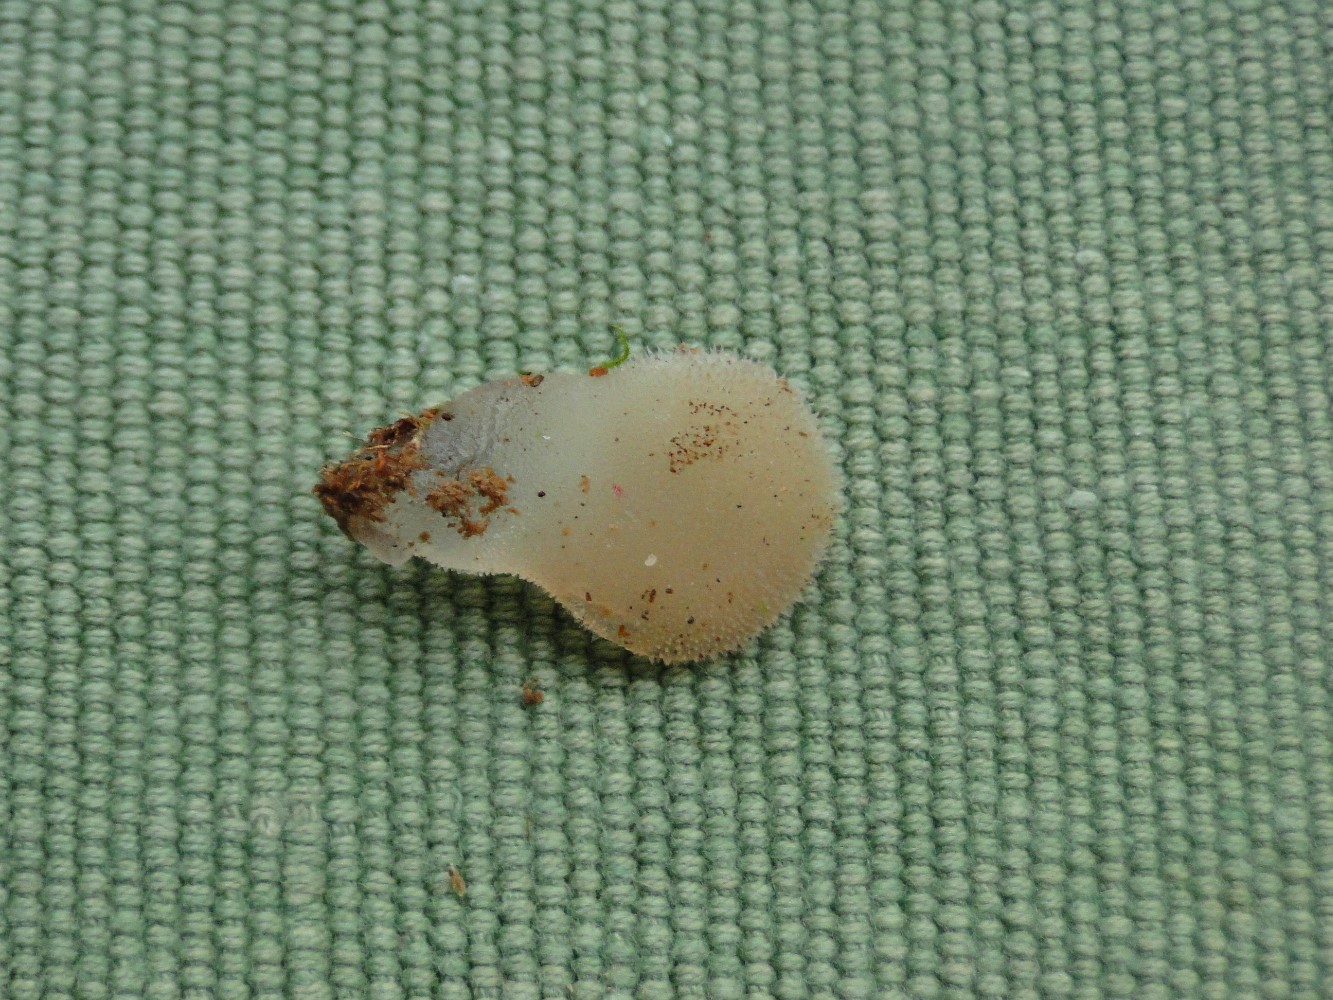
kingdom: Fungi
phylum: Basidiomycota
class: Agaricomycetes
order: Auriculariales
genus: Pseudohydnum
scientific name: Pseudohydnum gelatinosum
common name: bævretand
